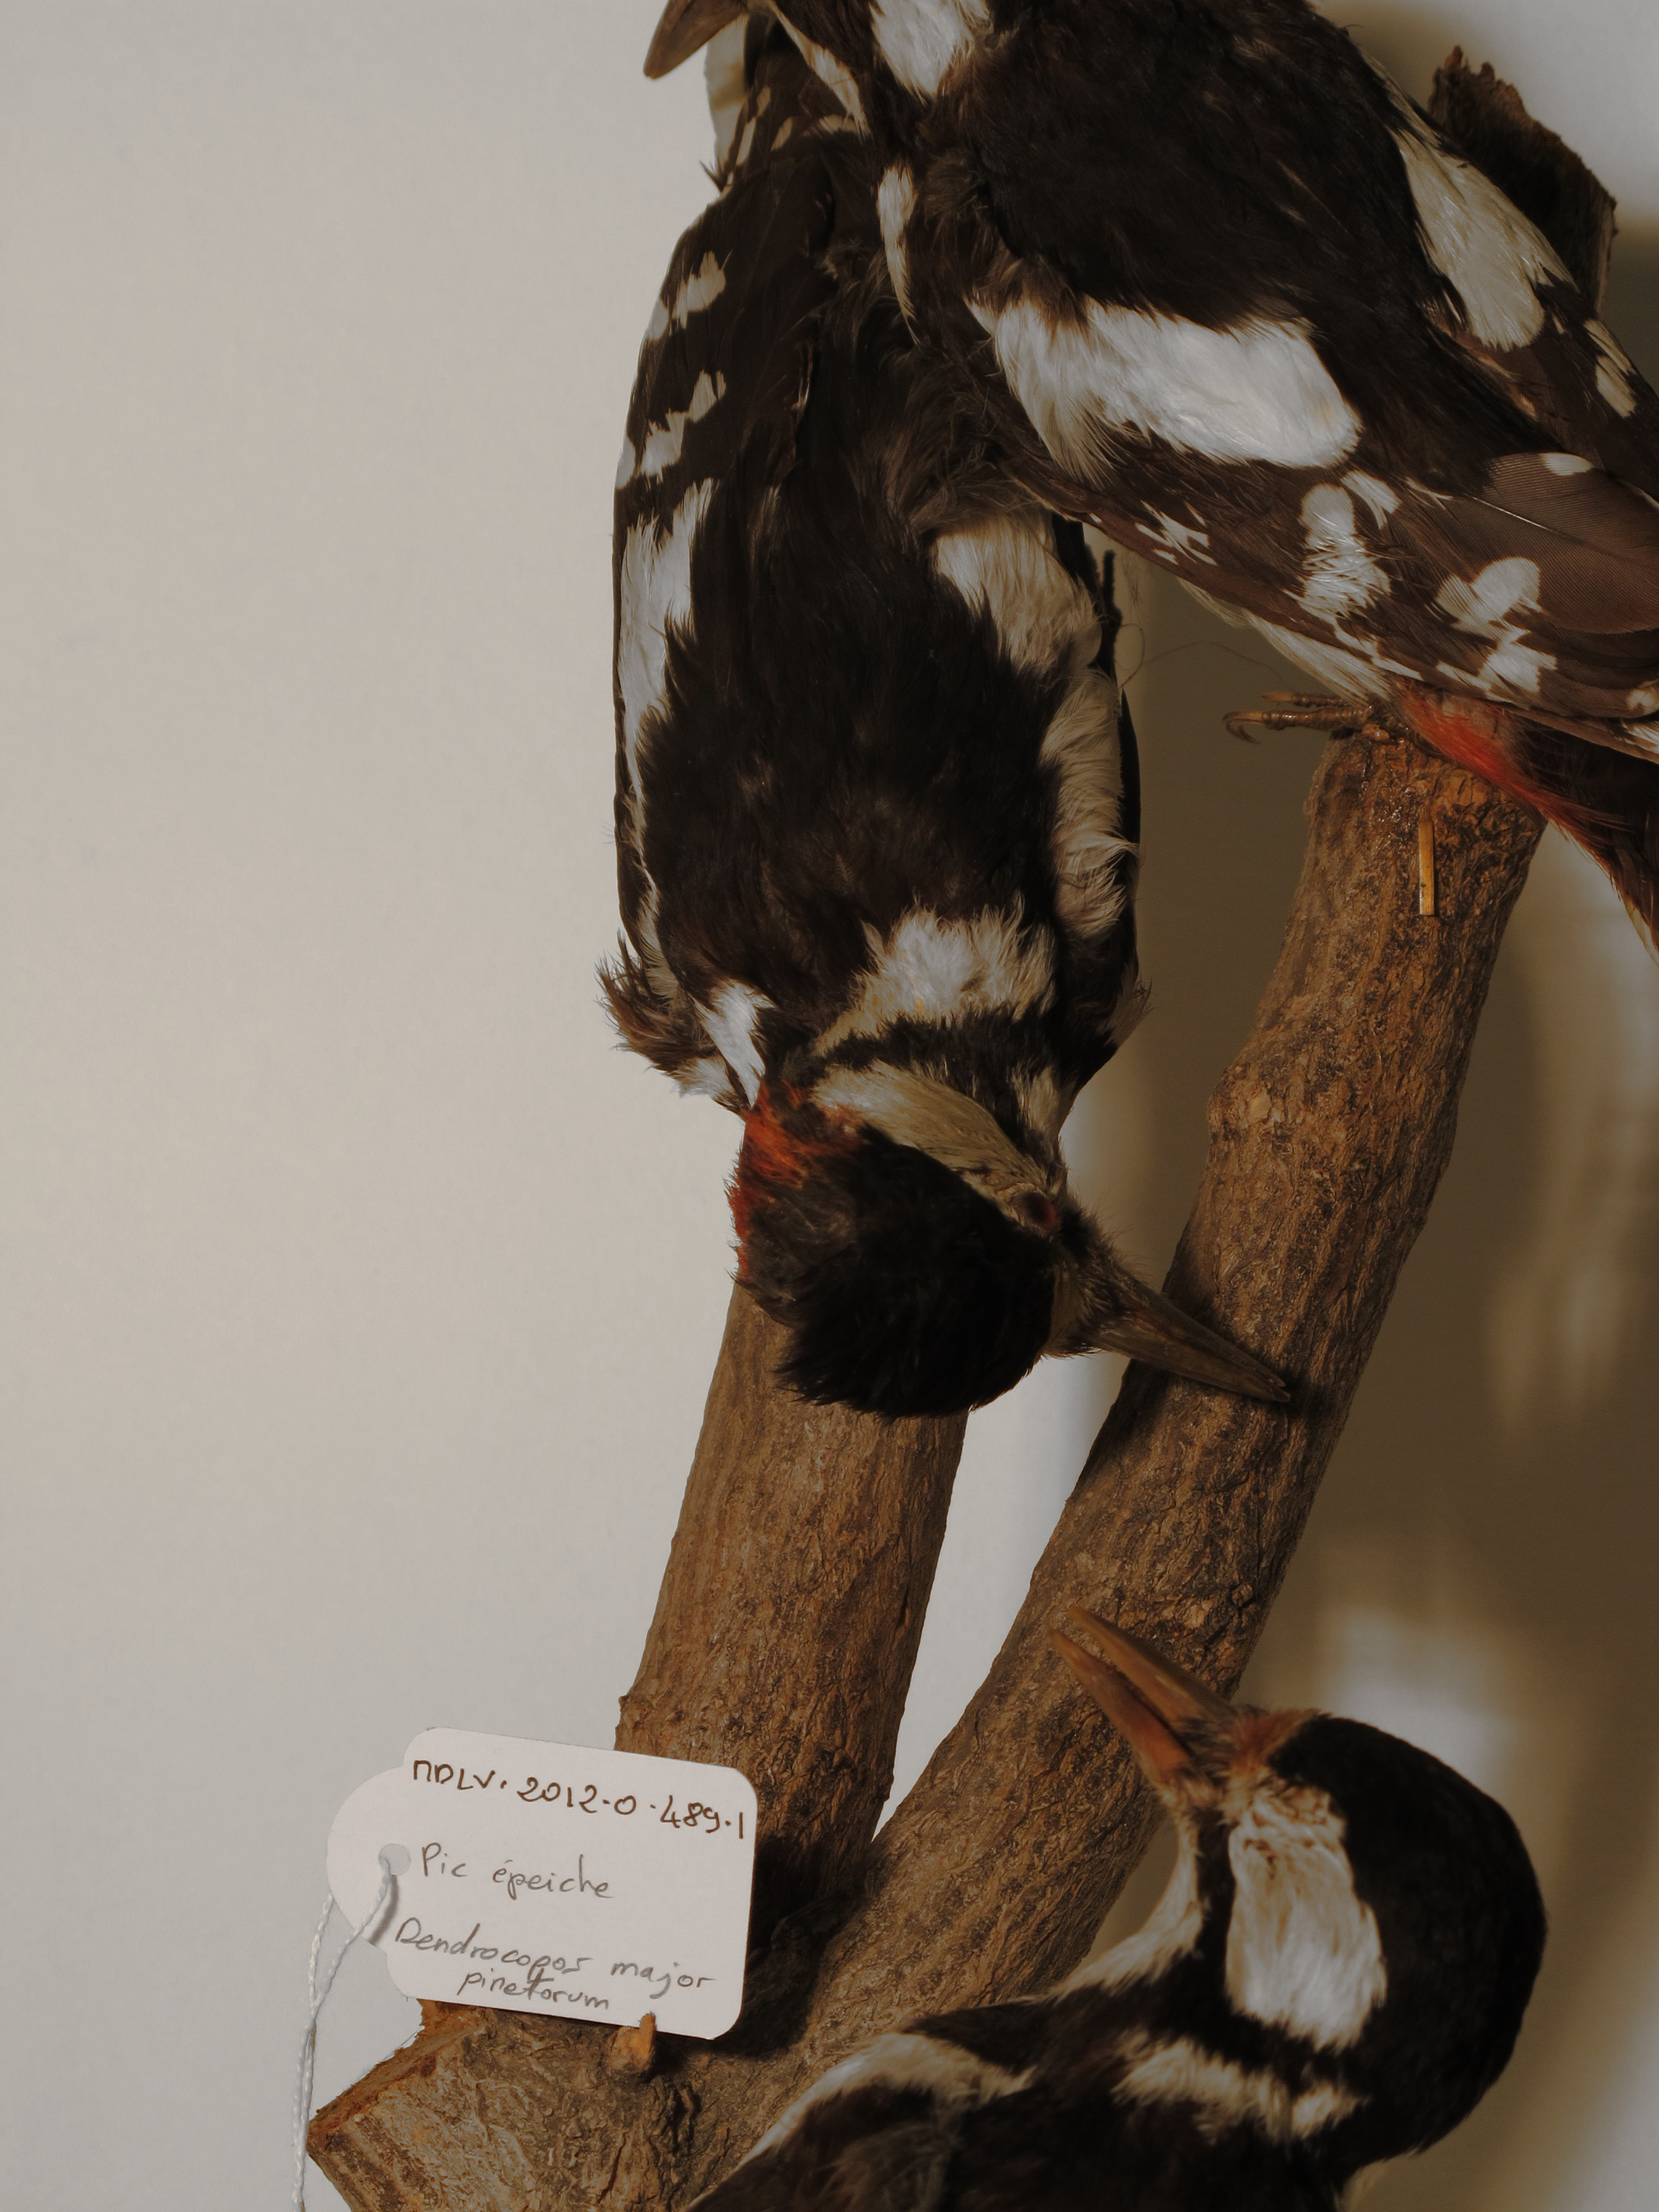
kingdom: Animalia
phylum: Chordata
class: Aves
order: Piciformes
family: Picidae
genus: Dendrocopos
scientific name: Dendrocopos major
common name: Great Spotted Woodpecker
